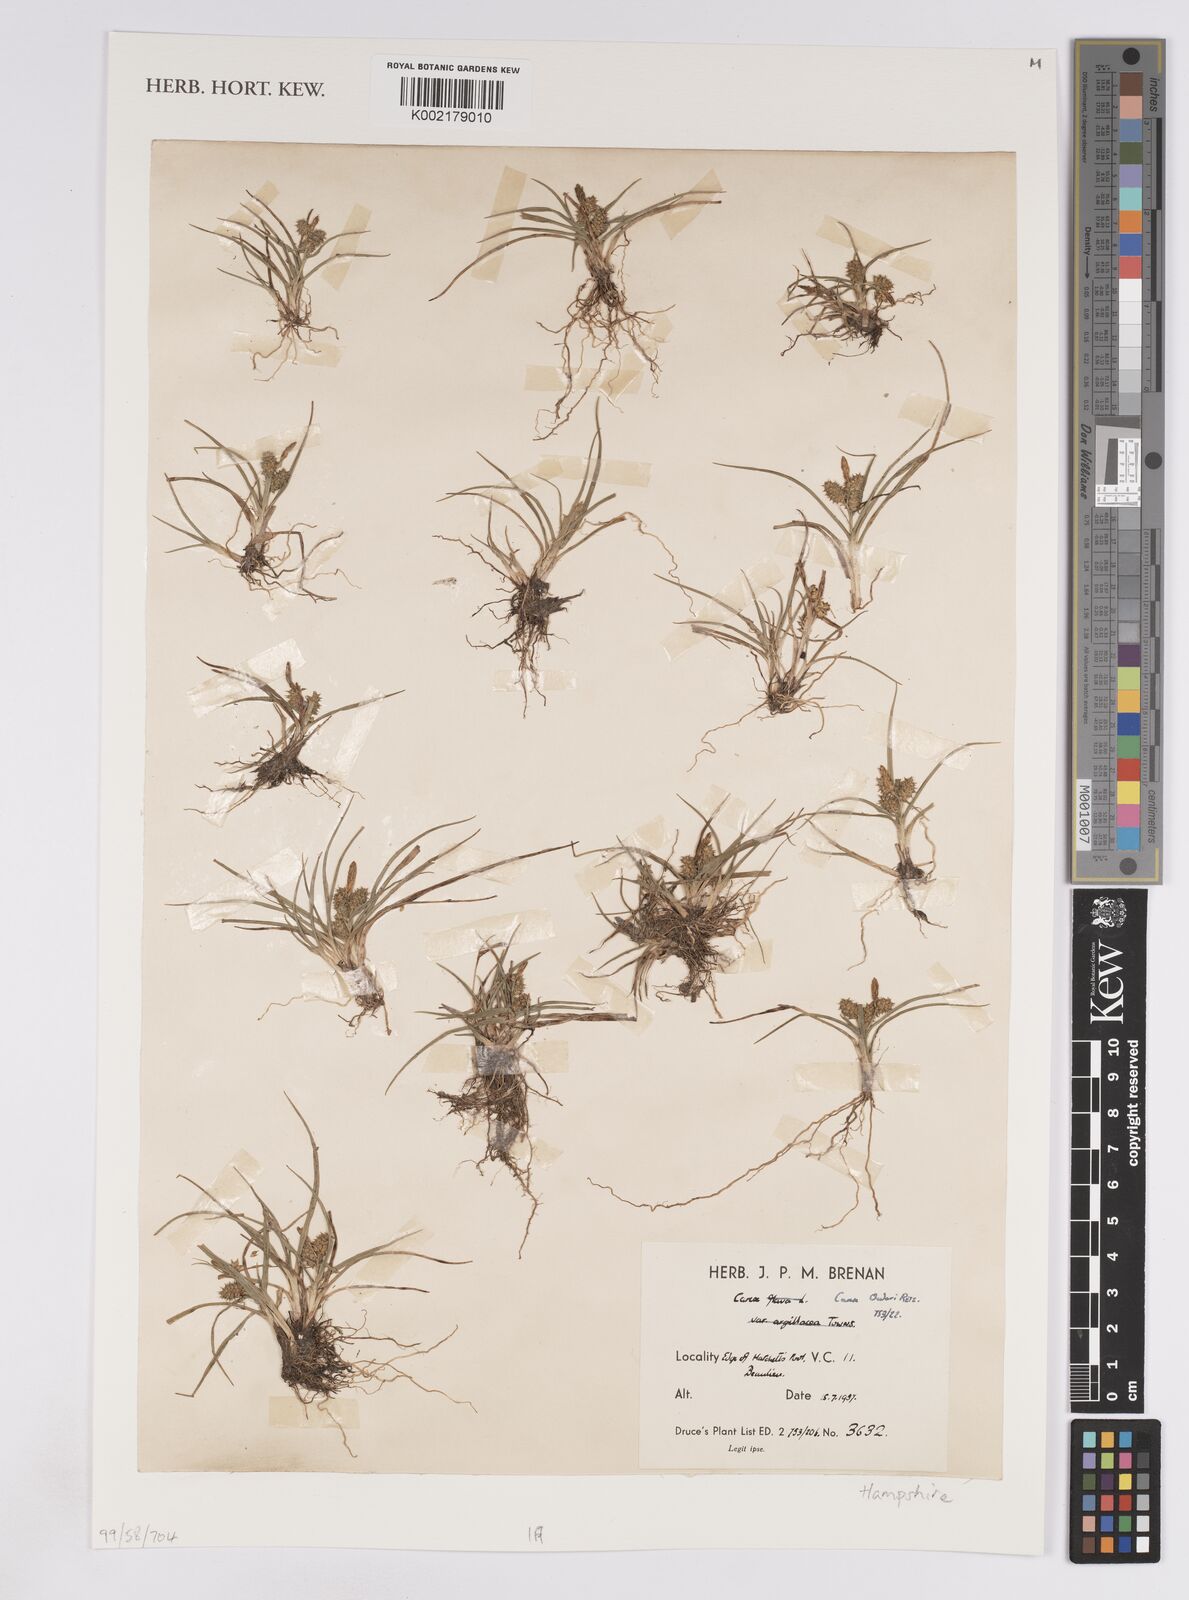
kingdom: Plantae
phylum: Tracheophyta
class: Liliopsida
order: Poales
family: Cyperaceae
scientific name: Cyperaceae
